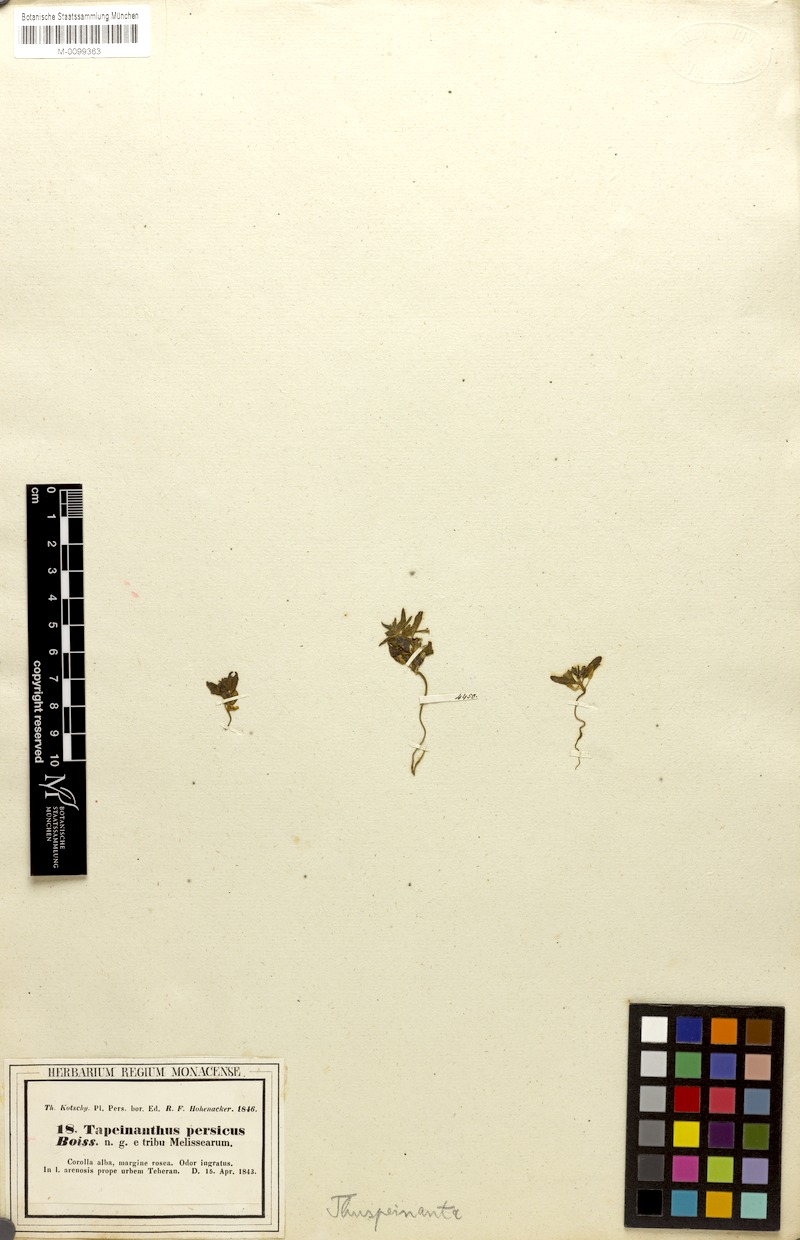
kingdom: Plantae
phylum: Tracheophyta
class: Magnoliopsida
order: Lamiales
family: Lamiaceae
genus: Thuspeinanta
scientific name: Thuspeinanta persica
